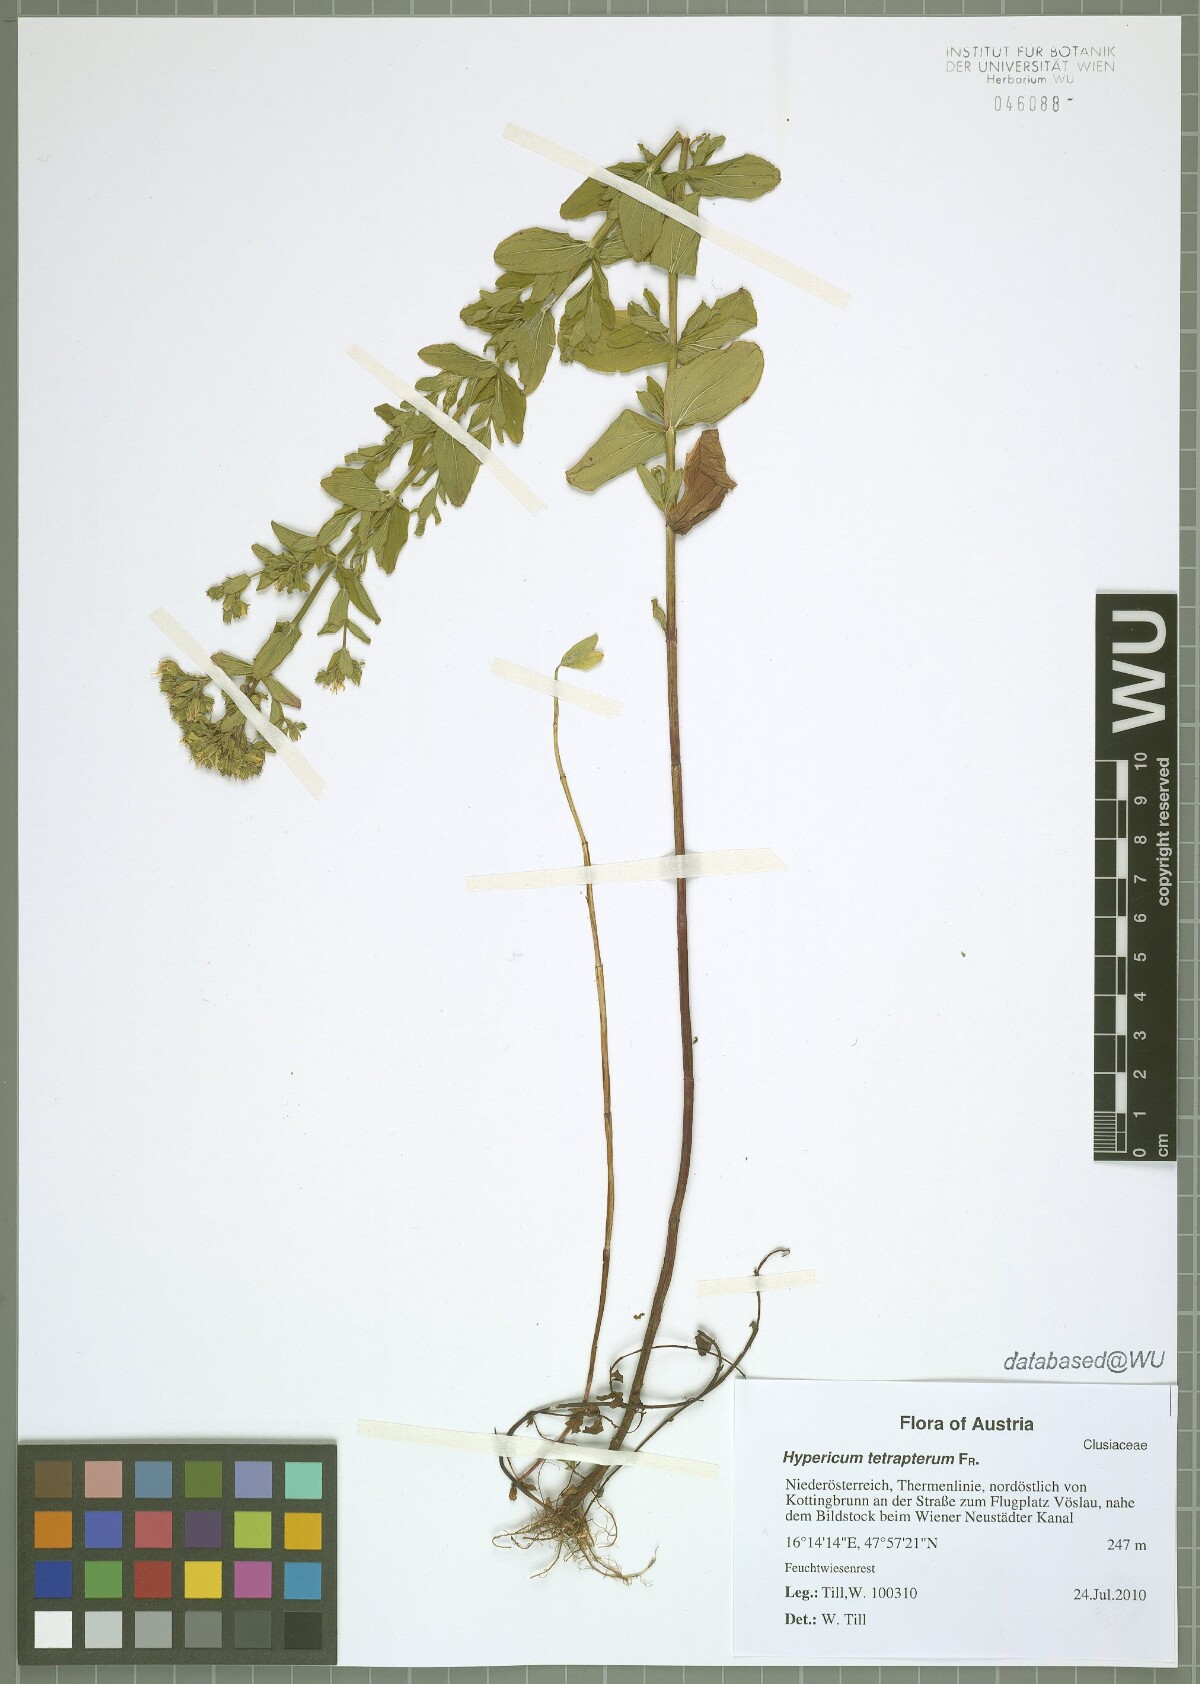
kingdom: Plantae
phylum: Tracheophyta
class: Magnoliopsida
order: Malpighiales
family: Hypericaceae
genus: Hypericum
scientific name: Hypericum tetrapterum
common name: Square-stalked st. john's-wort
